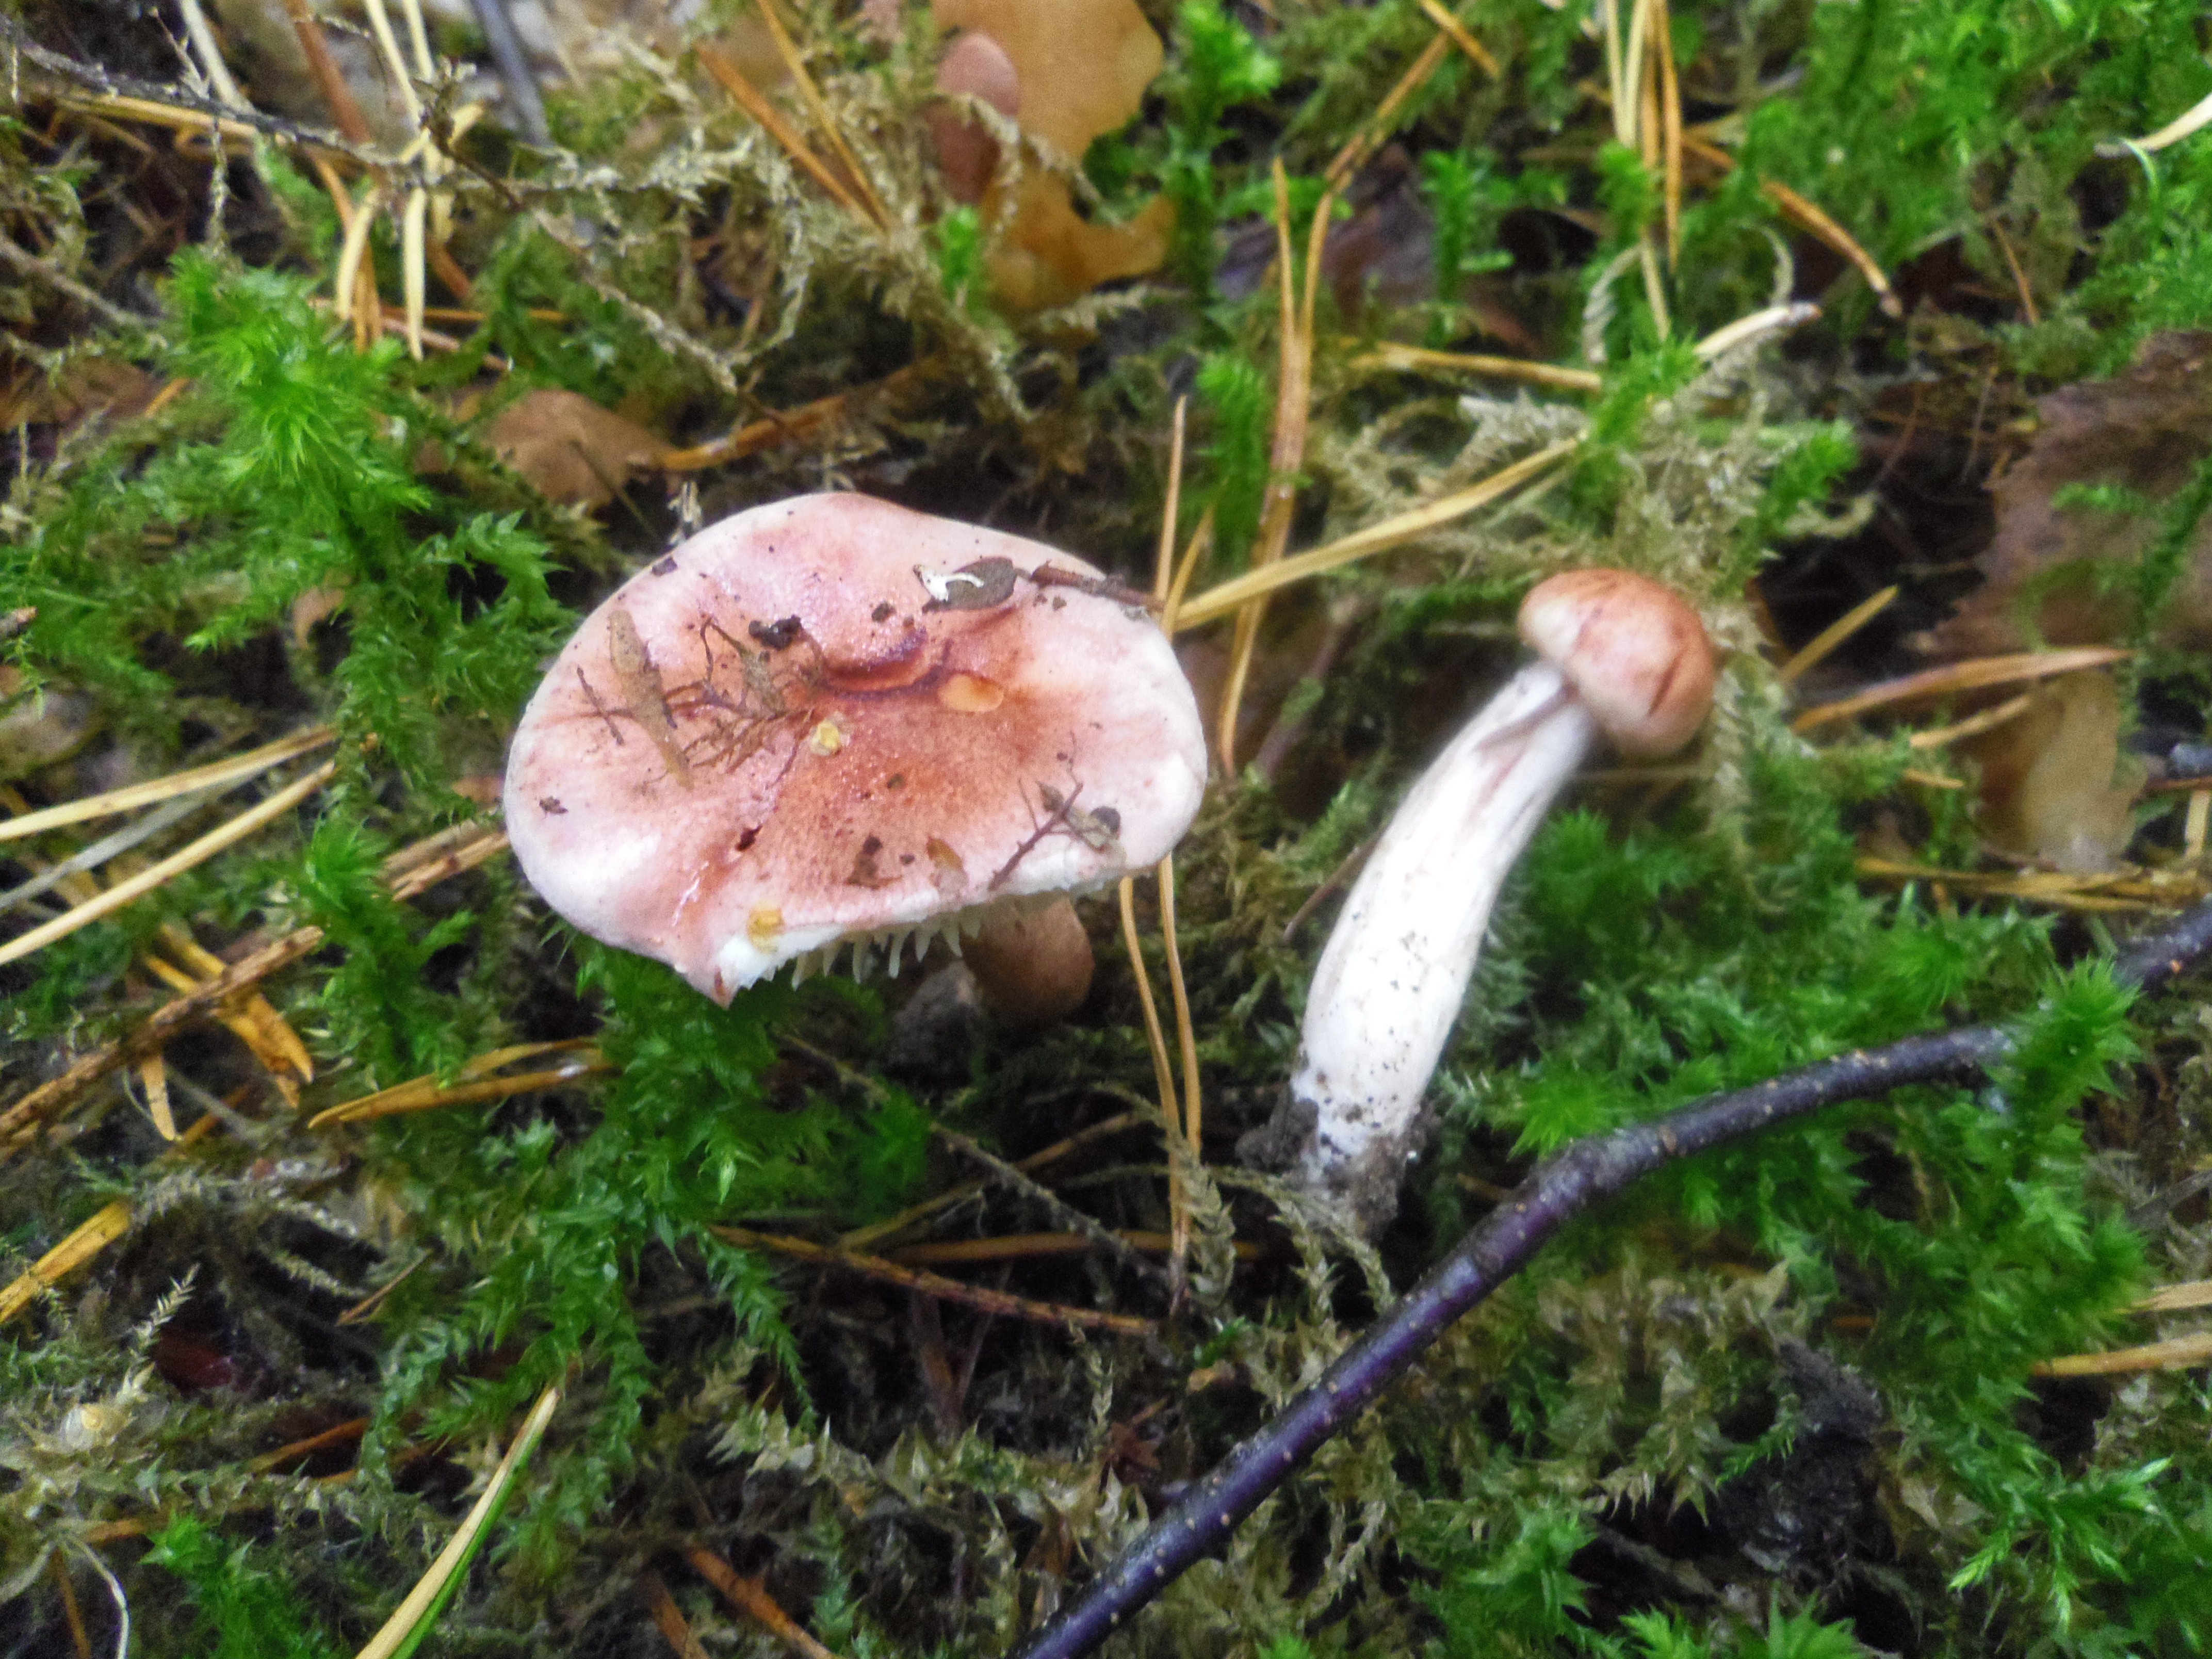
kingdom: Fungi
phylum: Basidiomycota
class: Agaricomycetes
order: Agaricales
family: Hygrophoraceae
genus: Hygrophorus
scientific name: Hygrophorus erubescens
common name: Blotched woodwax
